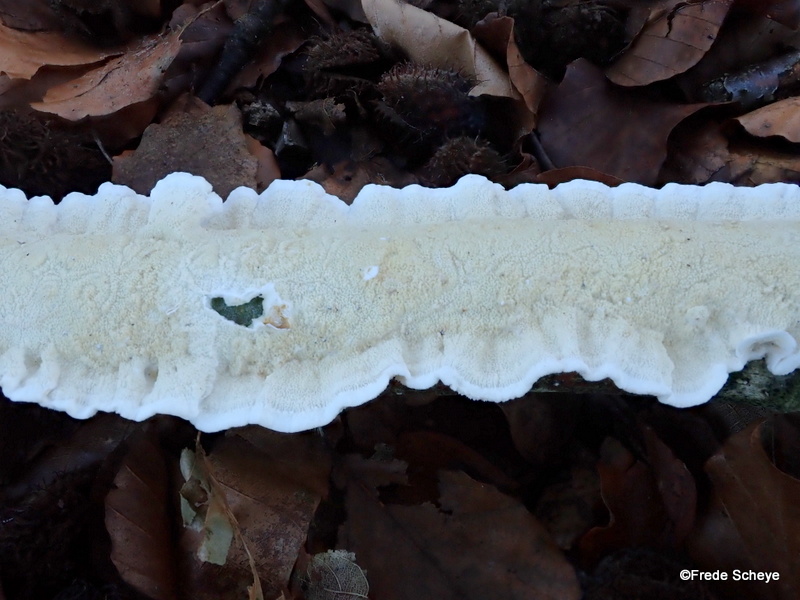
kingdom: Fungi
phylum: Basidiomycota
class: Agaricomycetes
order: Polyporales
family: Irpicaceae
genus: Byssomerulius
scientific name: Byssomerulius corium
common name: læder-åresvamp
